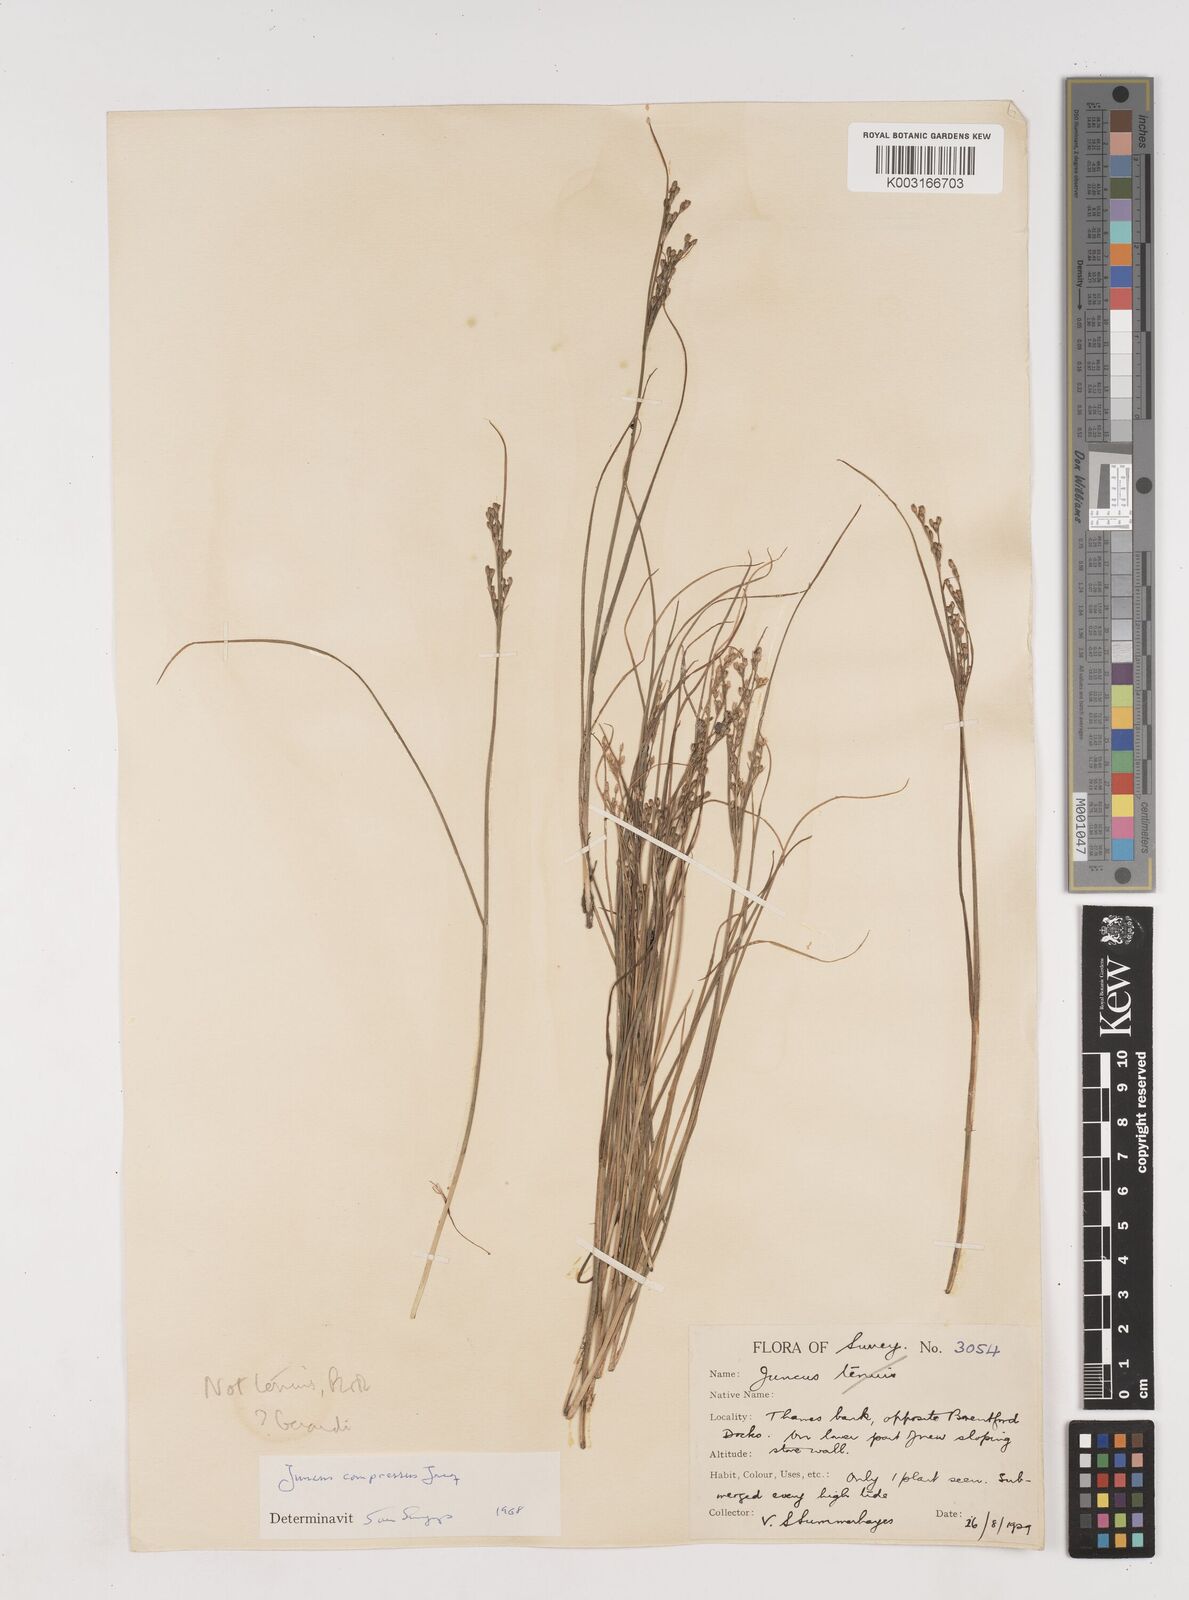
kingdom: Plantae
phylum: Tracheophyta
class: Liliopsida
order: Poales
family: Juncaceae
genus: Juncus
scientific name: Juncus compressus
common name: Round-fruited rush
